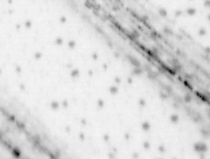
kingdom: Animalia
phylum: Chordata
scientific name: Chordata
